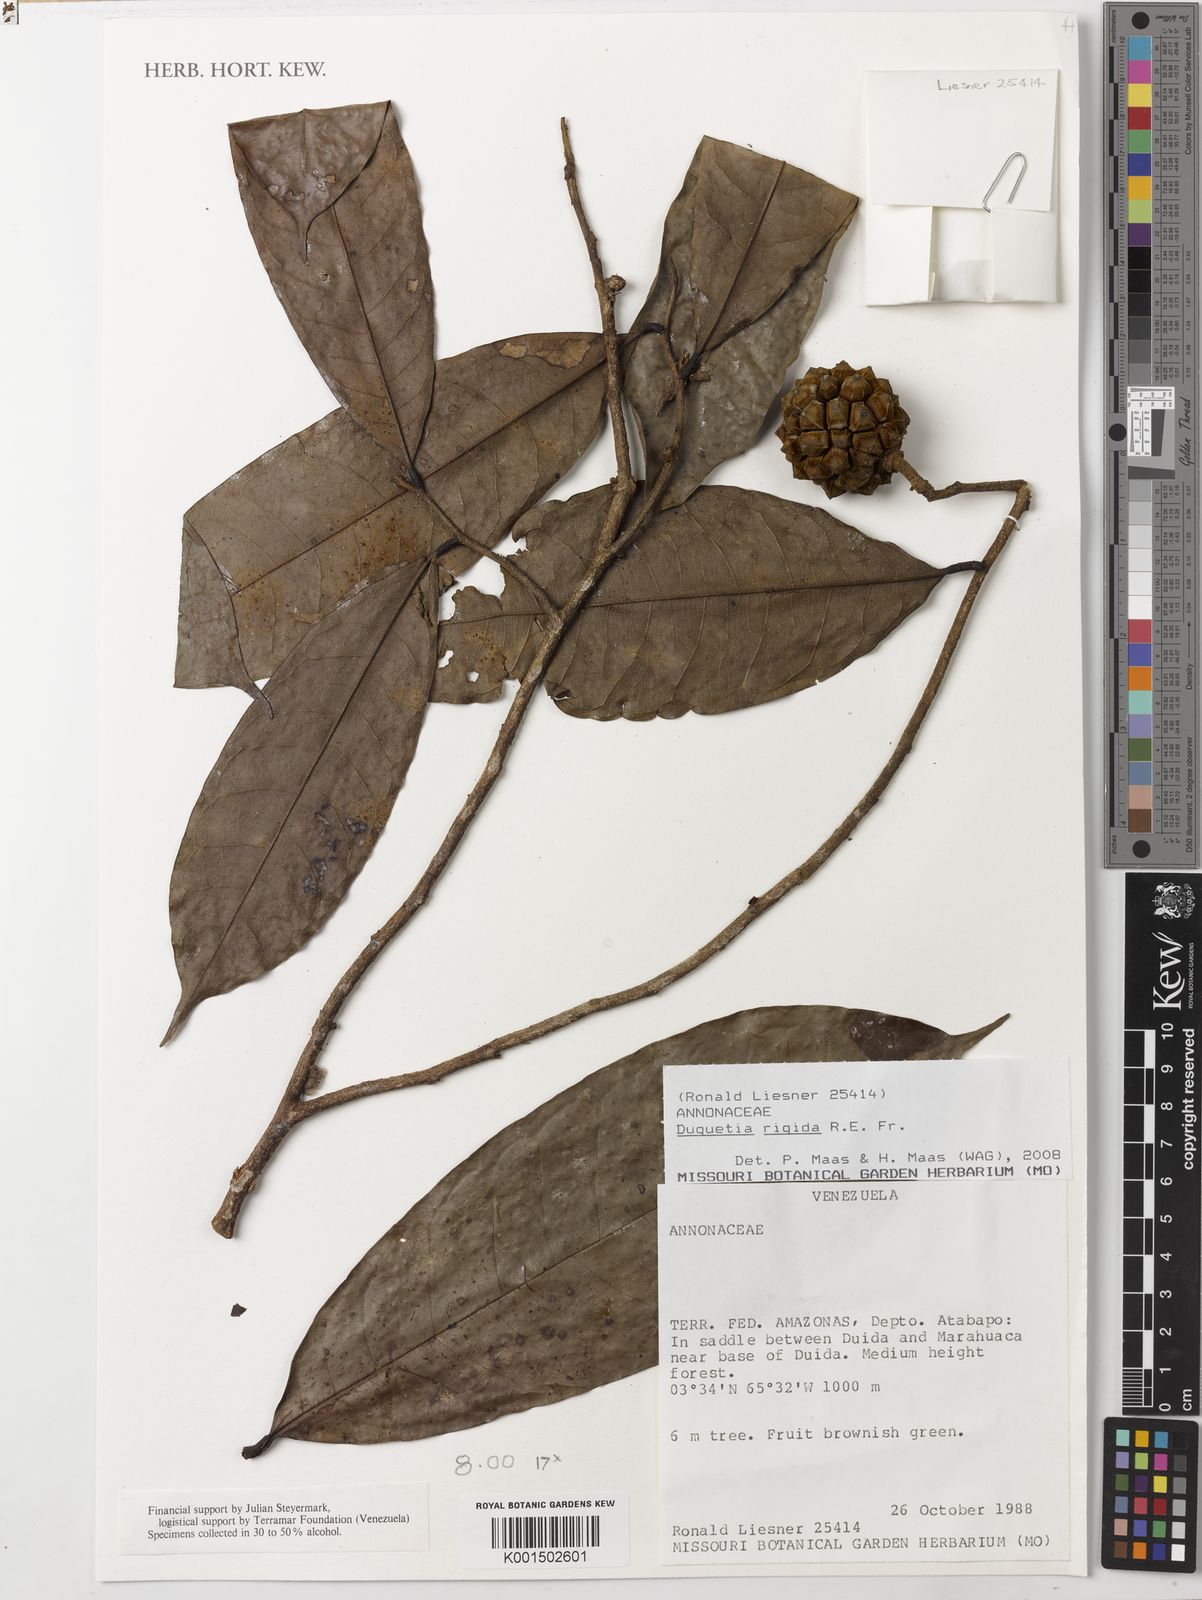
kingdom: Plantae
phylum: Tracheophyta
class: Magnoliopsida
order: Magnoliales
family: Annonaceae
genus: Duguetia
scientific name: Duguetia rigida
